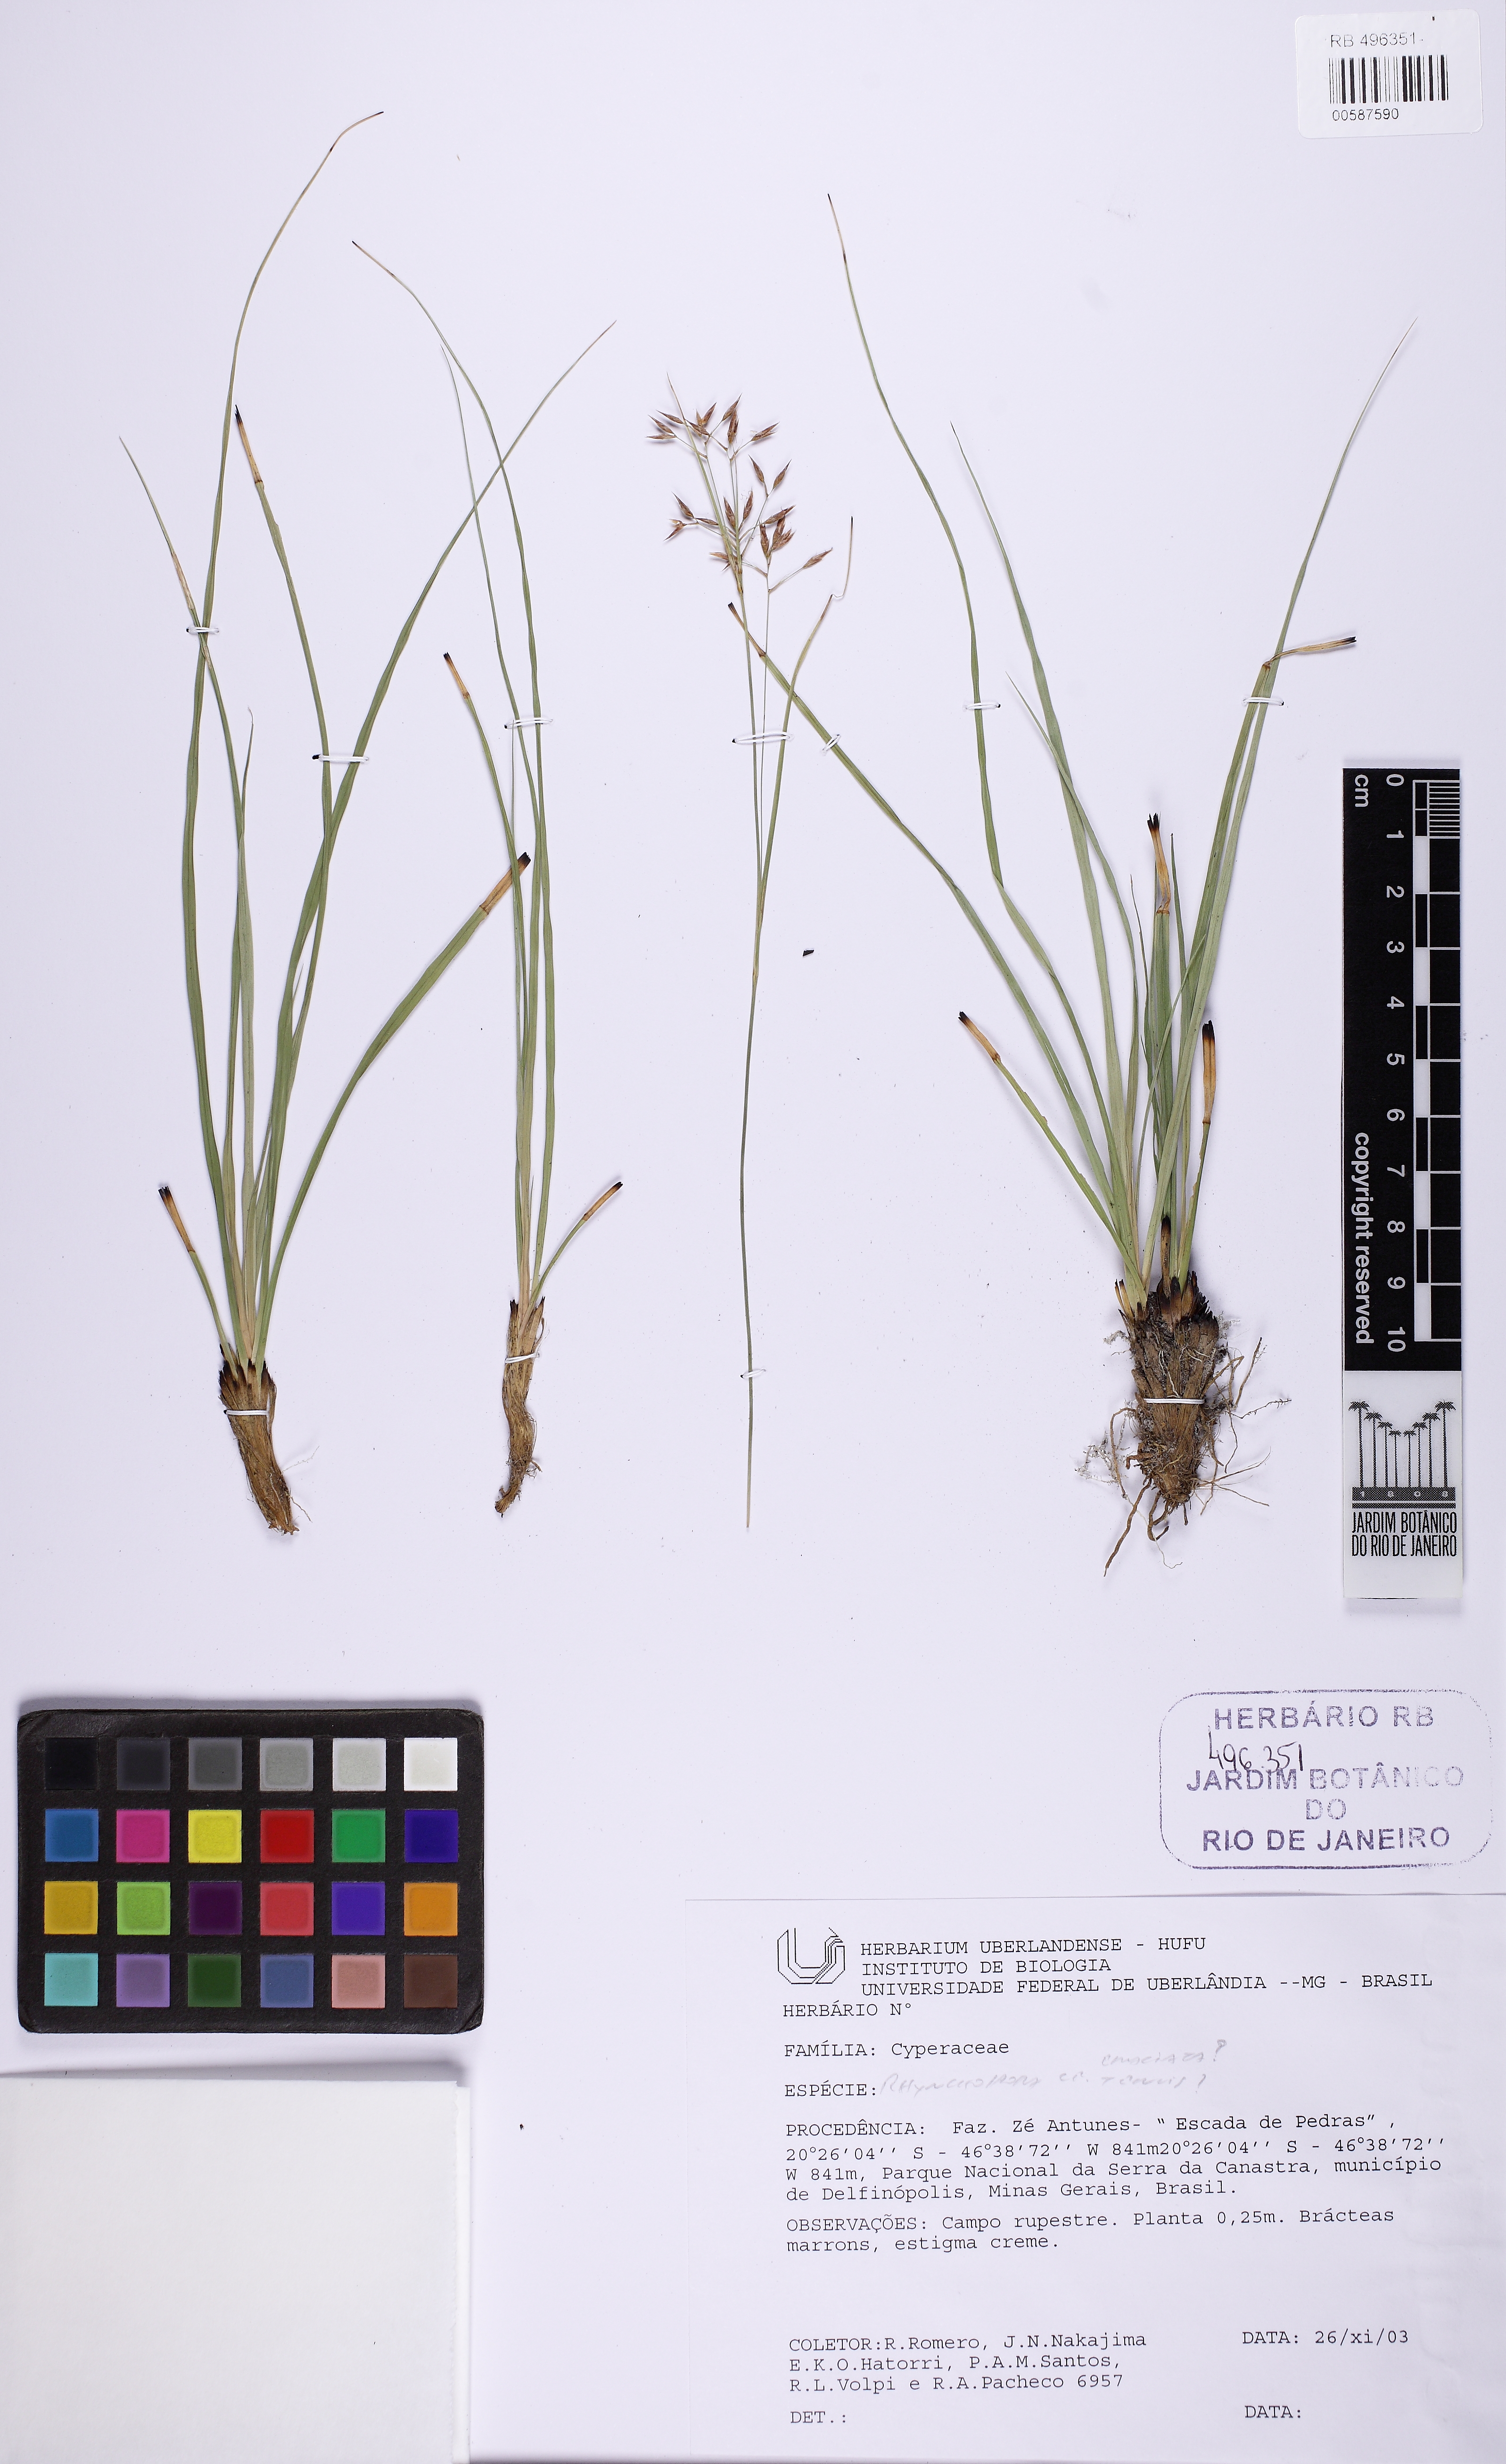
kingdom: Plantae
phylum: Tracheophyta
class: Liliopsida
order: Poales
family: Cyperaceae
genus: Rhynchospora
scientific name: Rhynchospora
